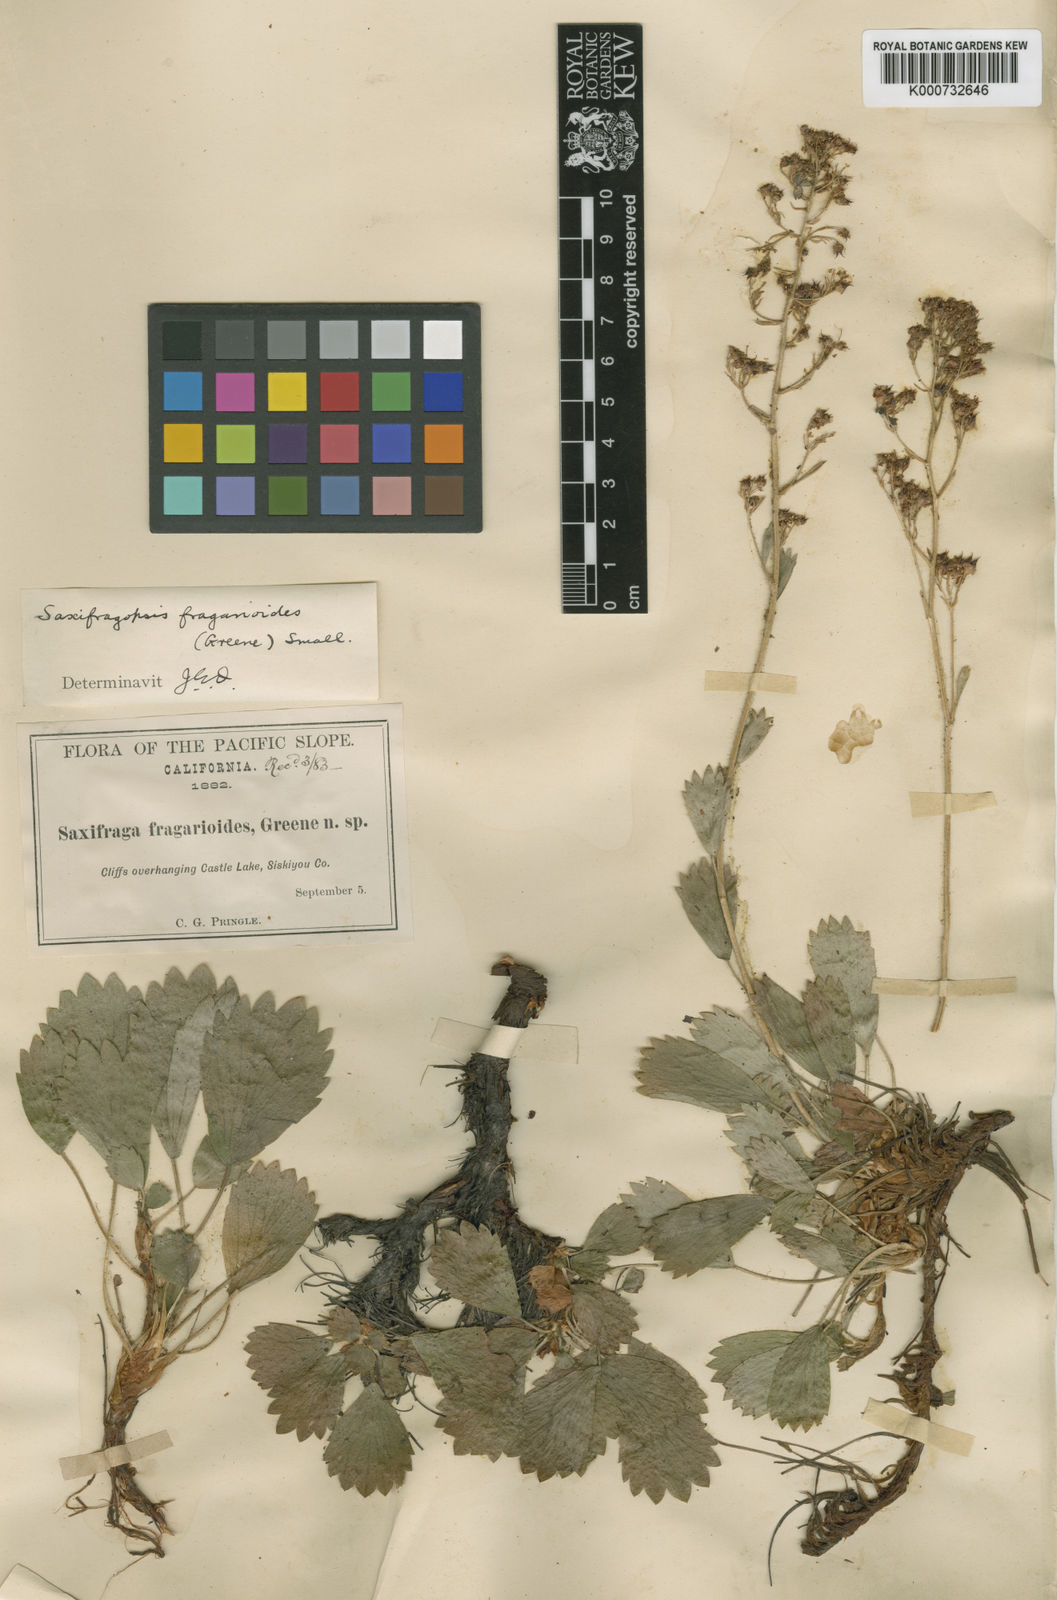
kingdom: Plantae
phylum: Tracheophyta
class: Magnoliopsida
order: Saxifragales
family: Saxifragaceae
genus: Saxifragopsis
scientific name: Saxifragopsis fragarioides
